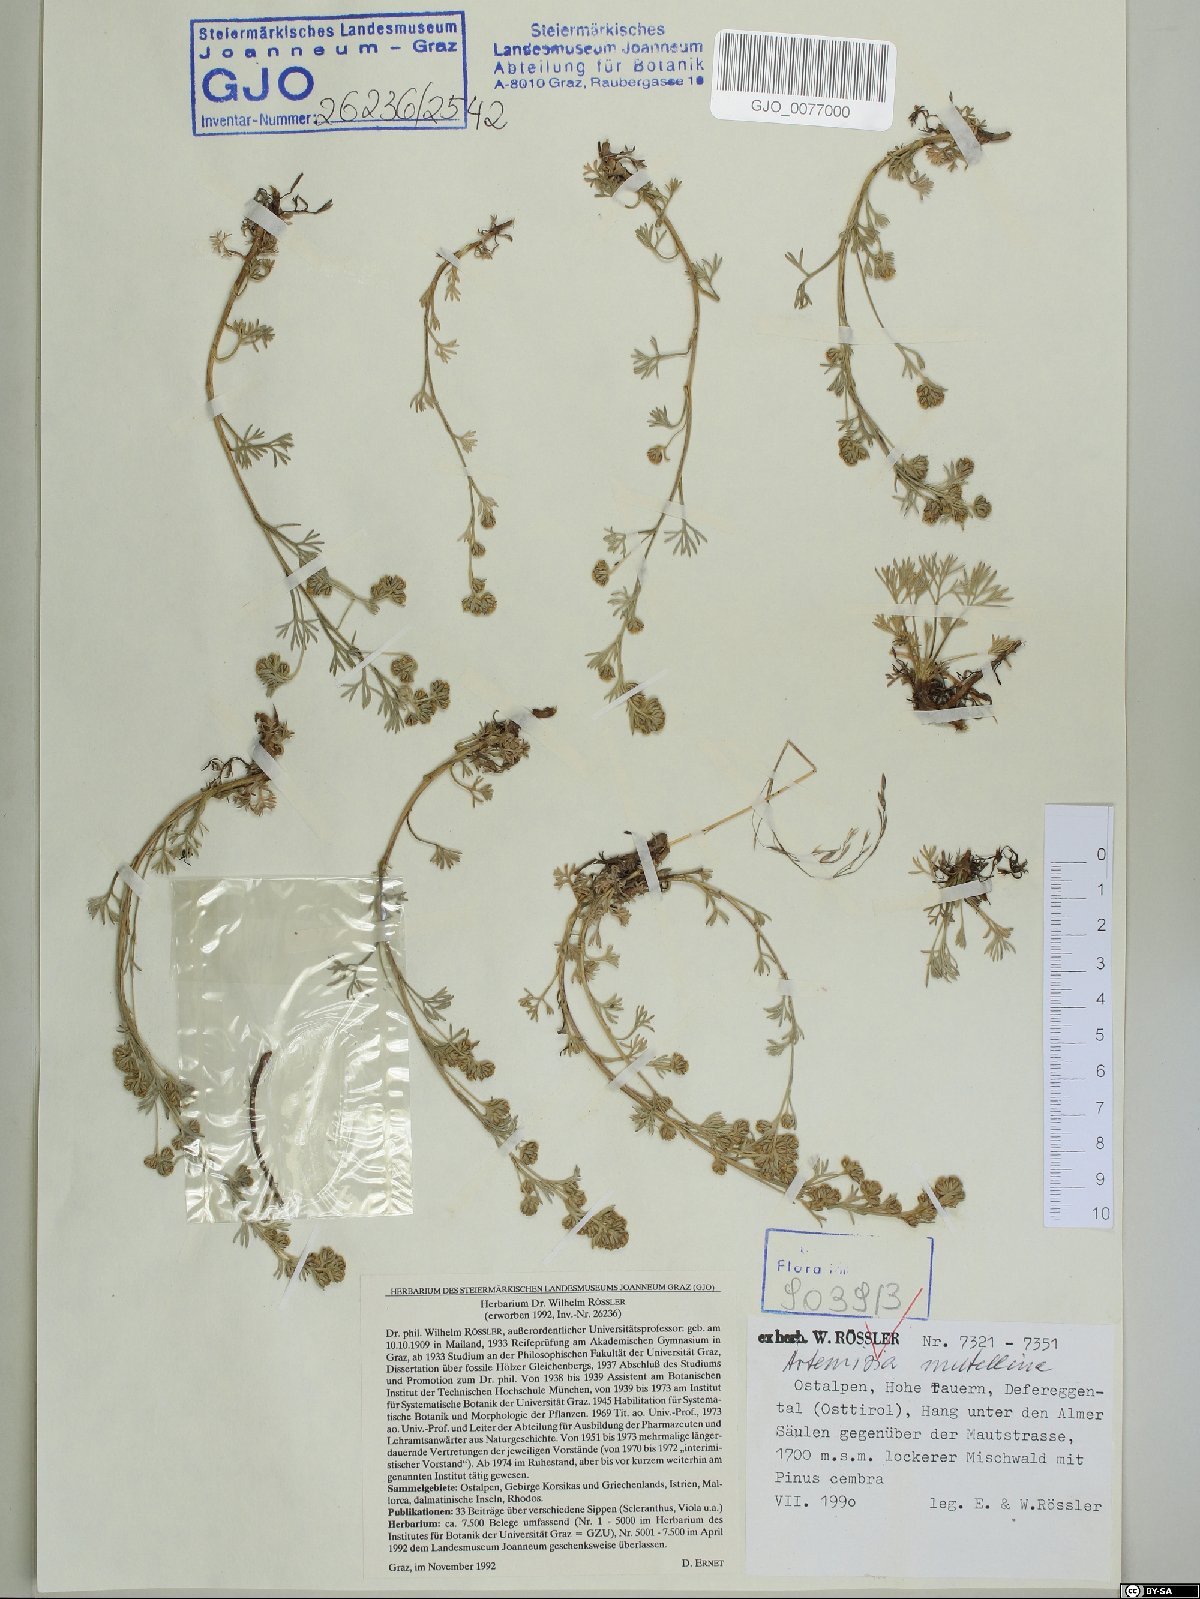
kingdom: Plantae
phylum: Tracheophyta
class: Magnoliopsida
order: Asterales
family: Asteraceae
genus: Artemisia
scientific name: Artemisia mutellina
